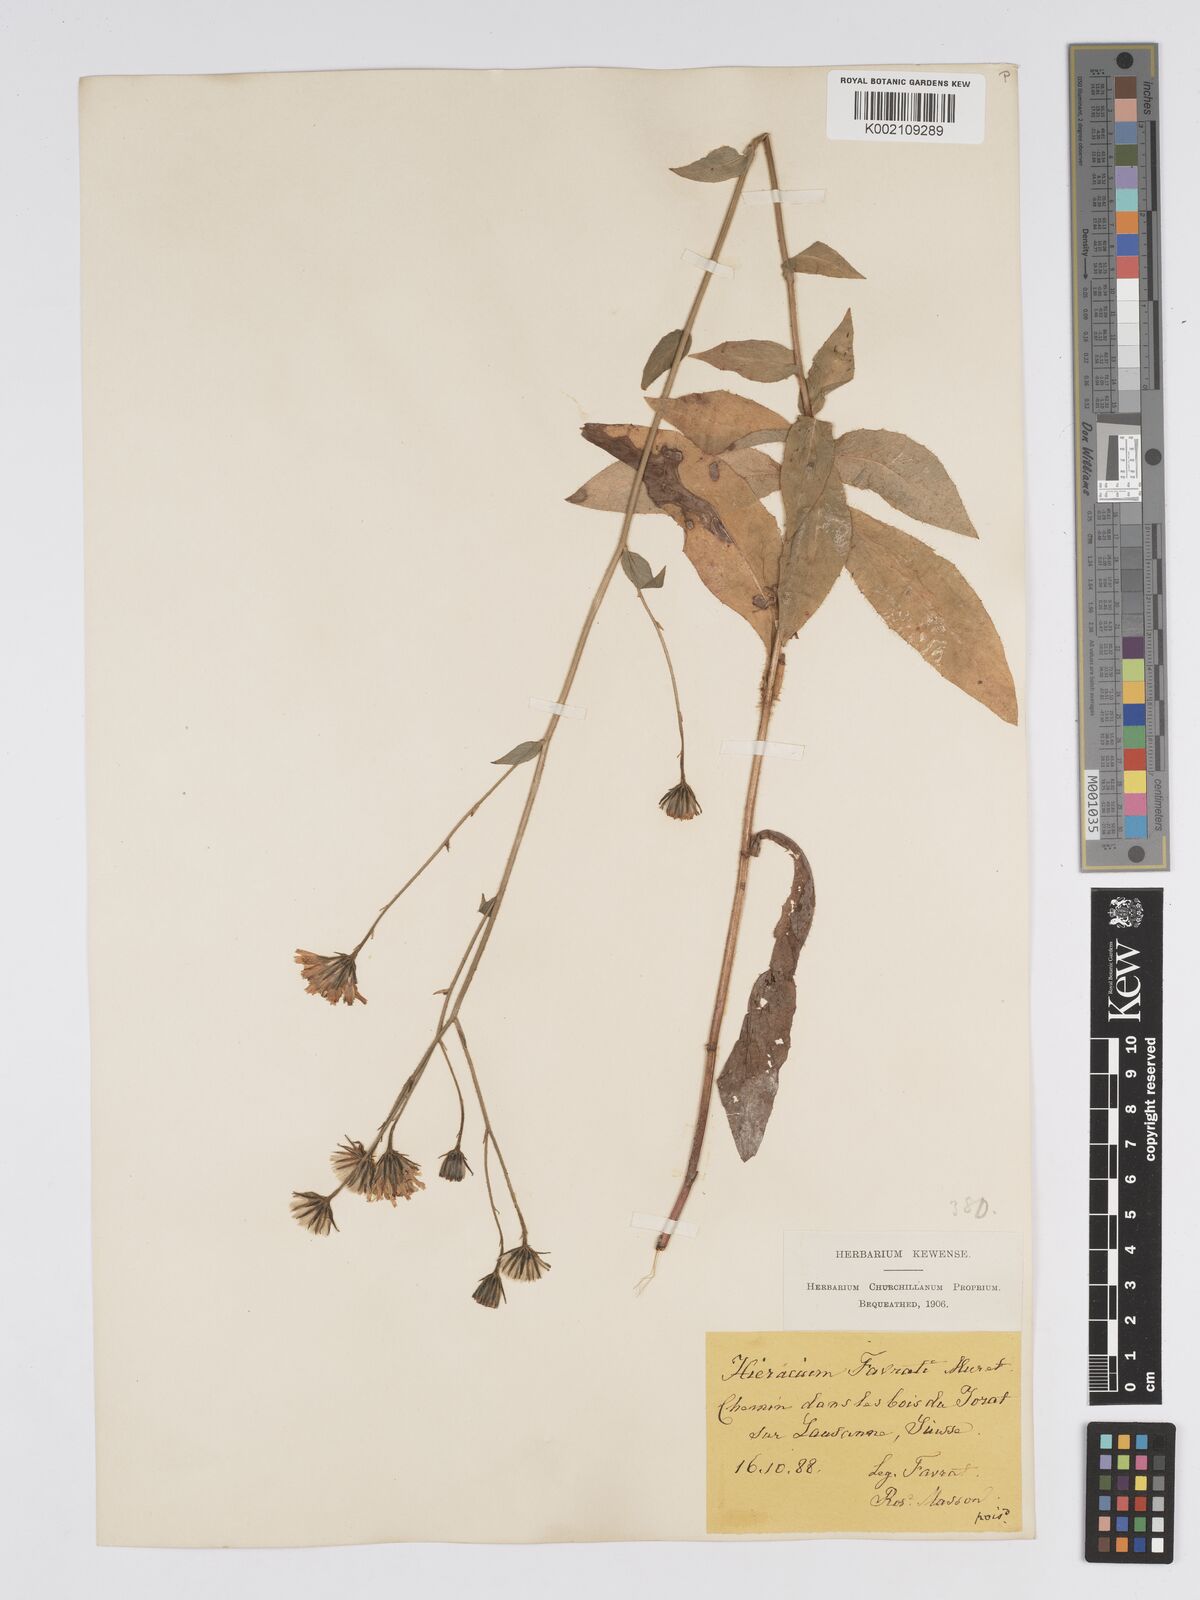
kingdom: Plantae
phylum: Tracheophyta
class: Magnoliopsida
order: Asterales
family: Asteraceae
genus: Hieracium
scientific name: Hieracium favratii
